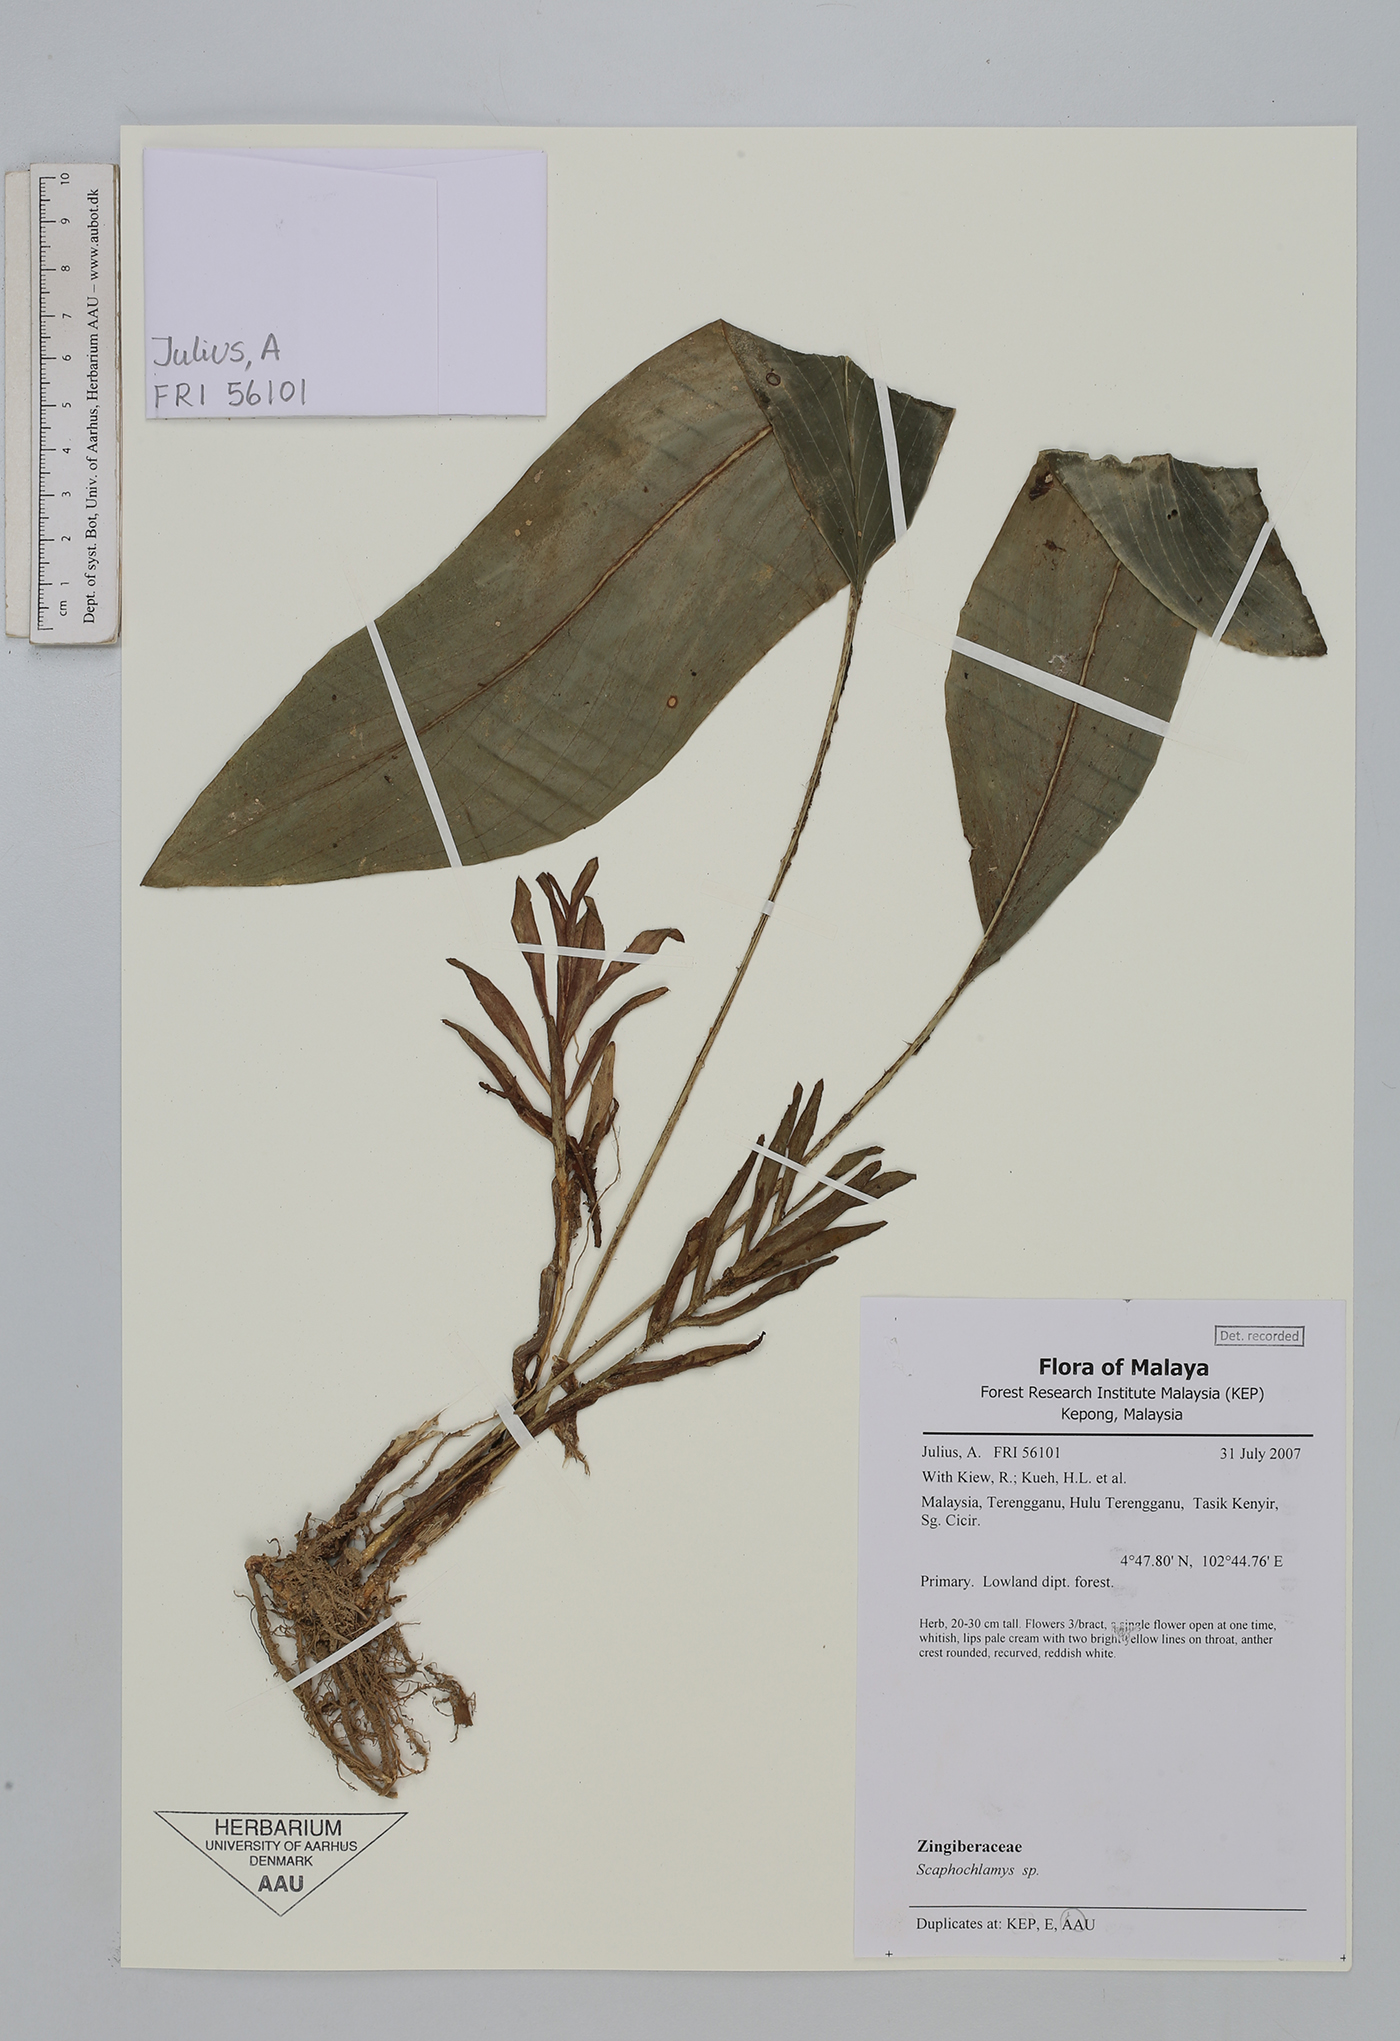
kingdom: Plantae
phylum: Tracheophyta
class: Liliopsida
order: Zingiberales
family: Zingiberaceae
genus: Scaphochlamys
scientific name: Scaphochlamys
